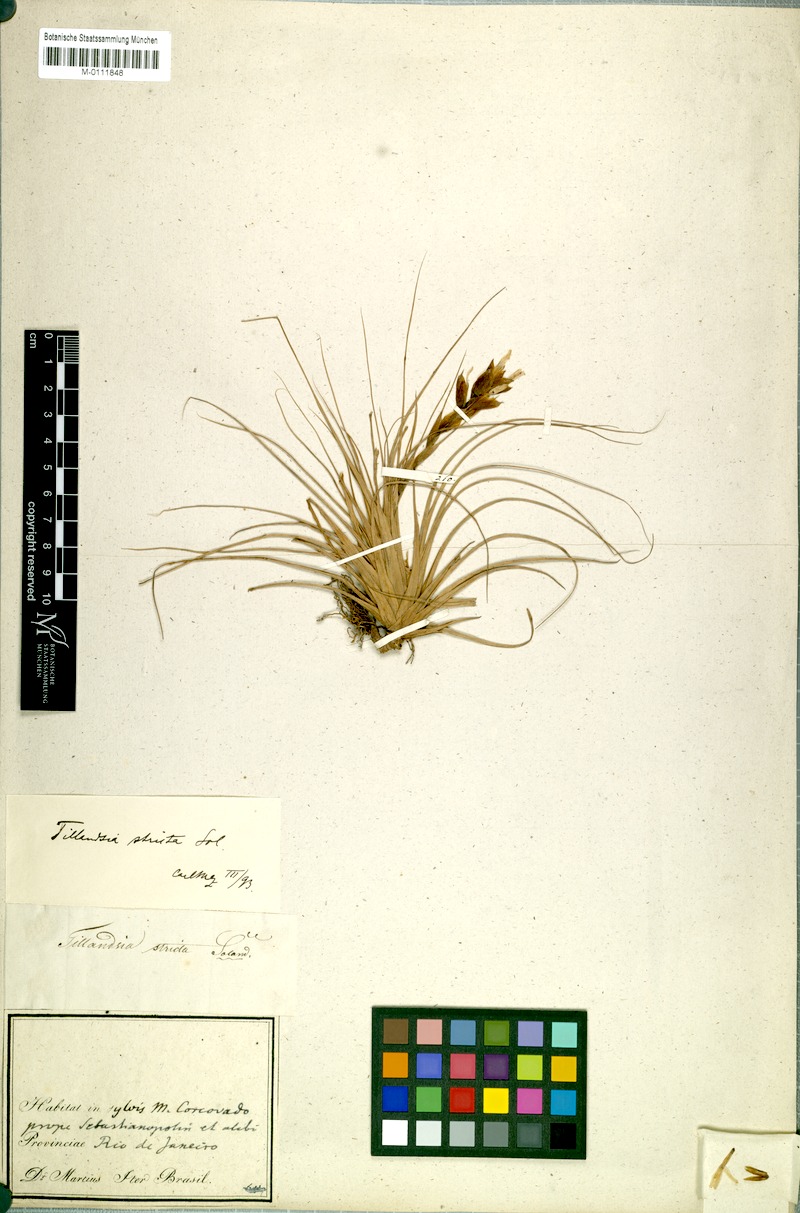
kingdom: Plantae
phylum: Tracheophyta
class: Liliopsida
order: Poales
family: Bromeliaceae
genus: Tillandsia
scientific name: Tillandsia stricta
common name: Airplant
